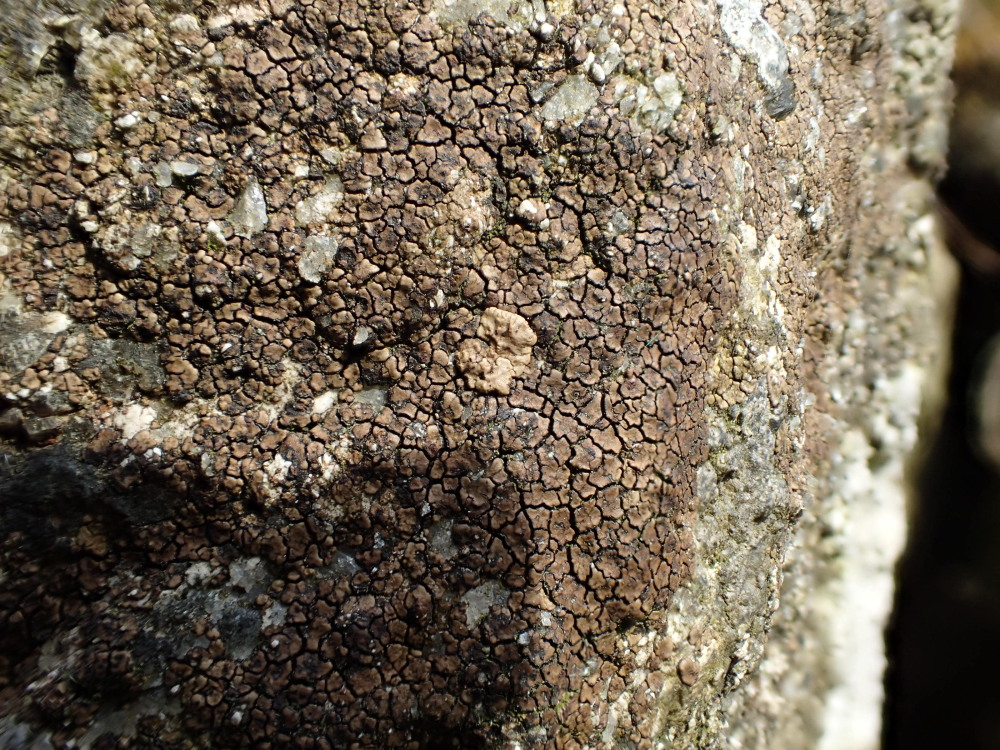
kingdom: Fungi
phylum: Ascomycota
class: Lecanoromycetes
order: Acarosporales
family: Acarosporaceae
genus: Acarospora
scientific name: Acarospora fuscata
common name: brun småsporelav
